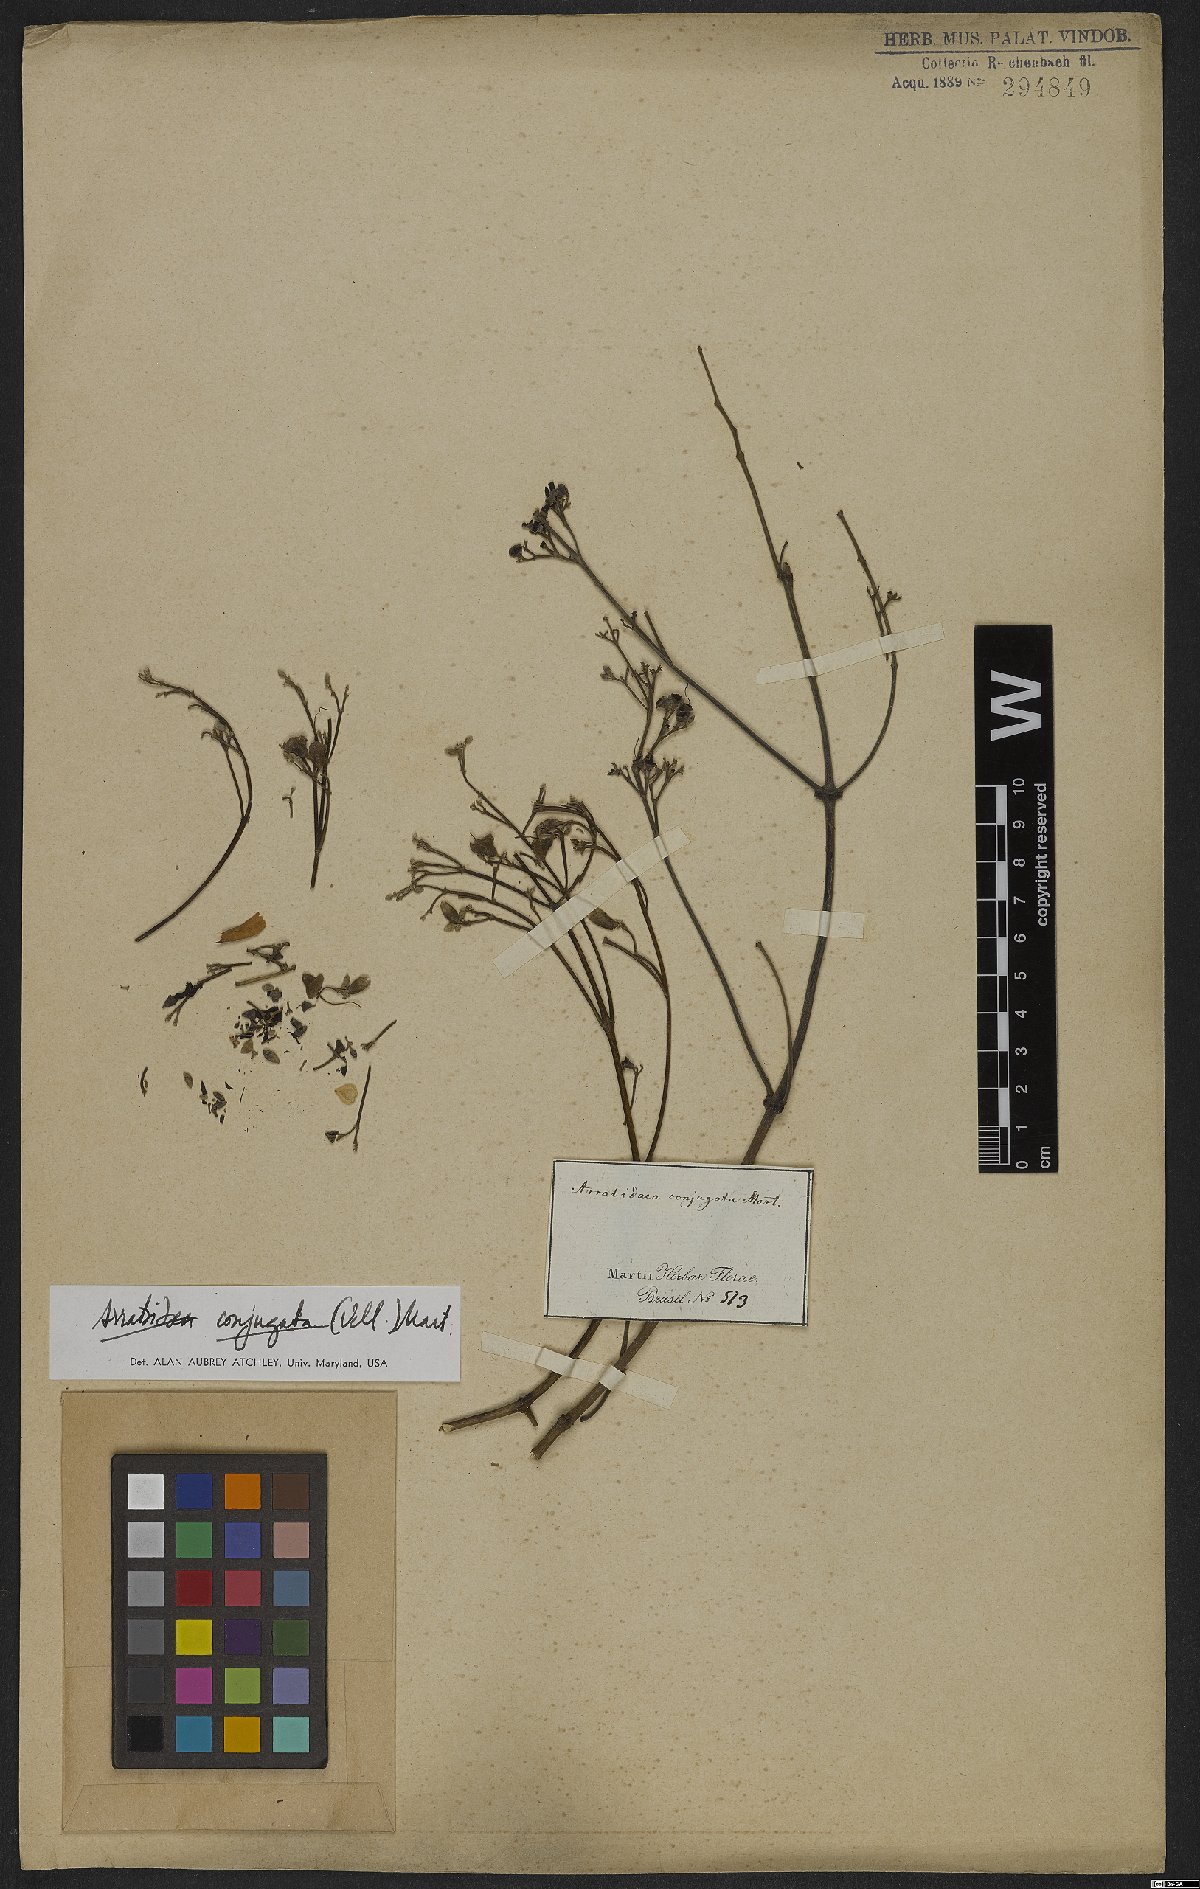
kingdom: Plantae
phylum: Tracheophyta
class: Magnoliopsida
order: Lamiales
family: Bignoniaceae
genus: Fridericia
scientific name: Fridericia conjugata
